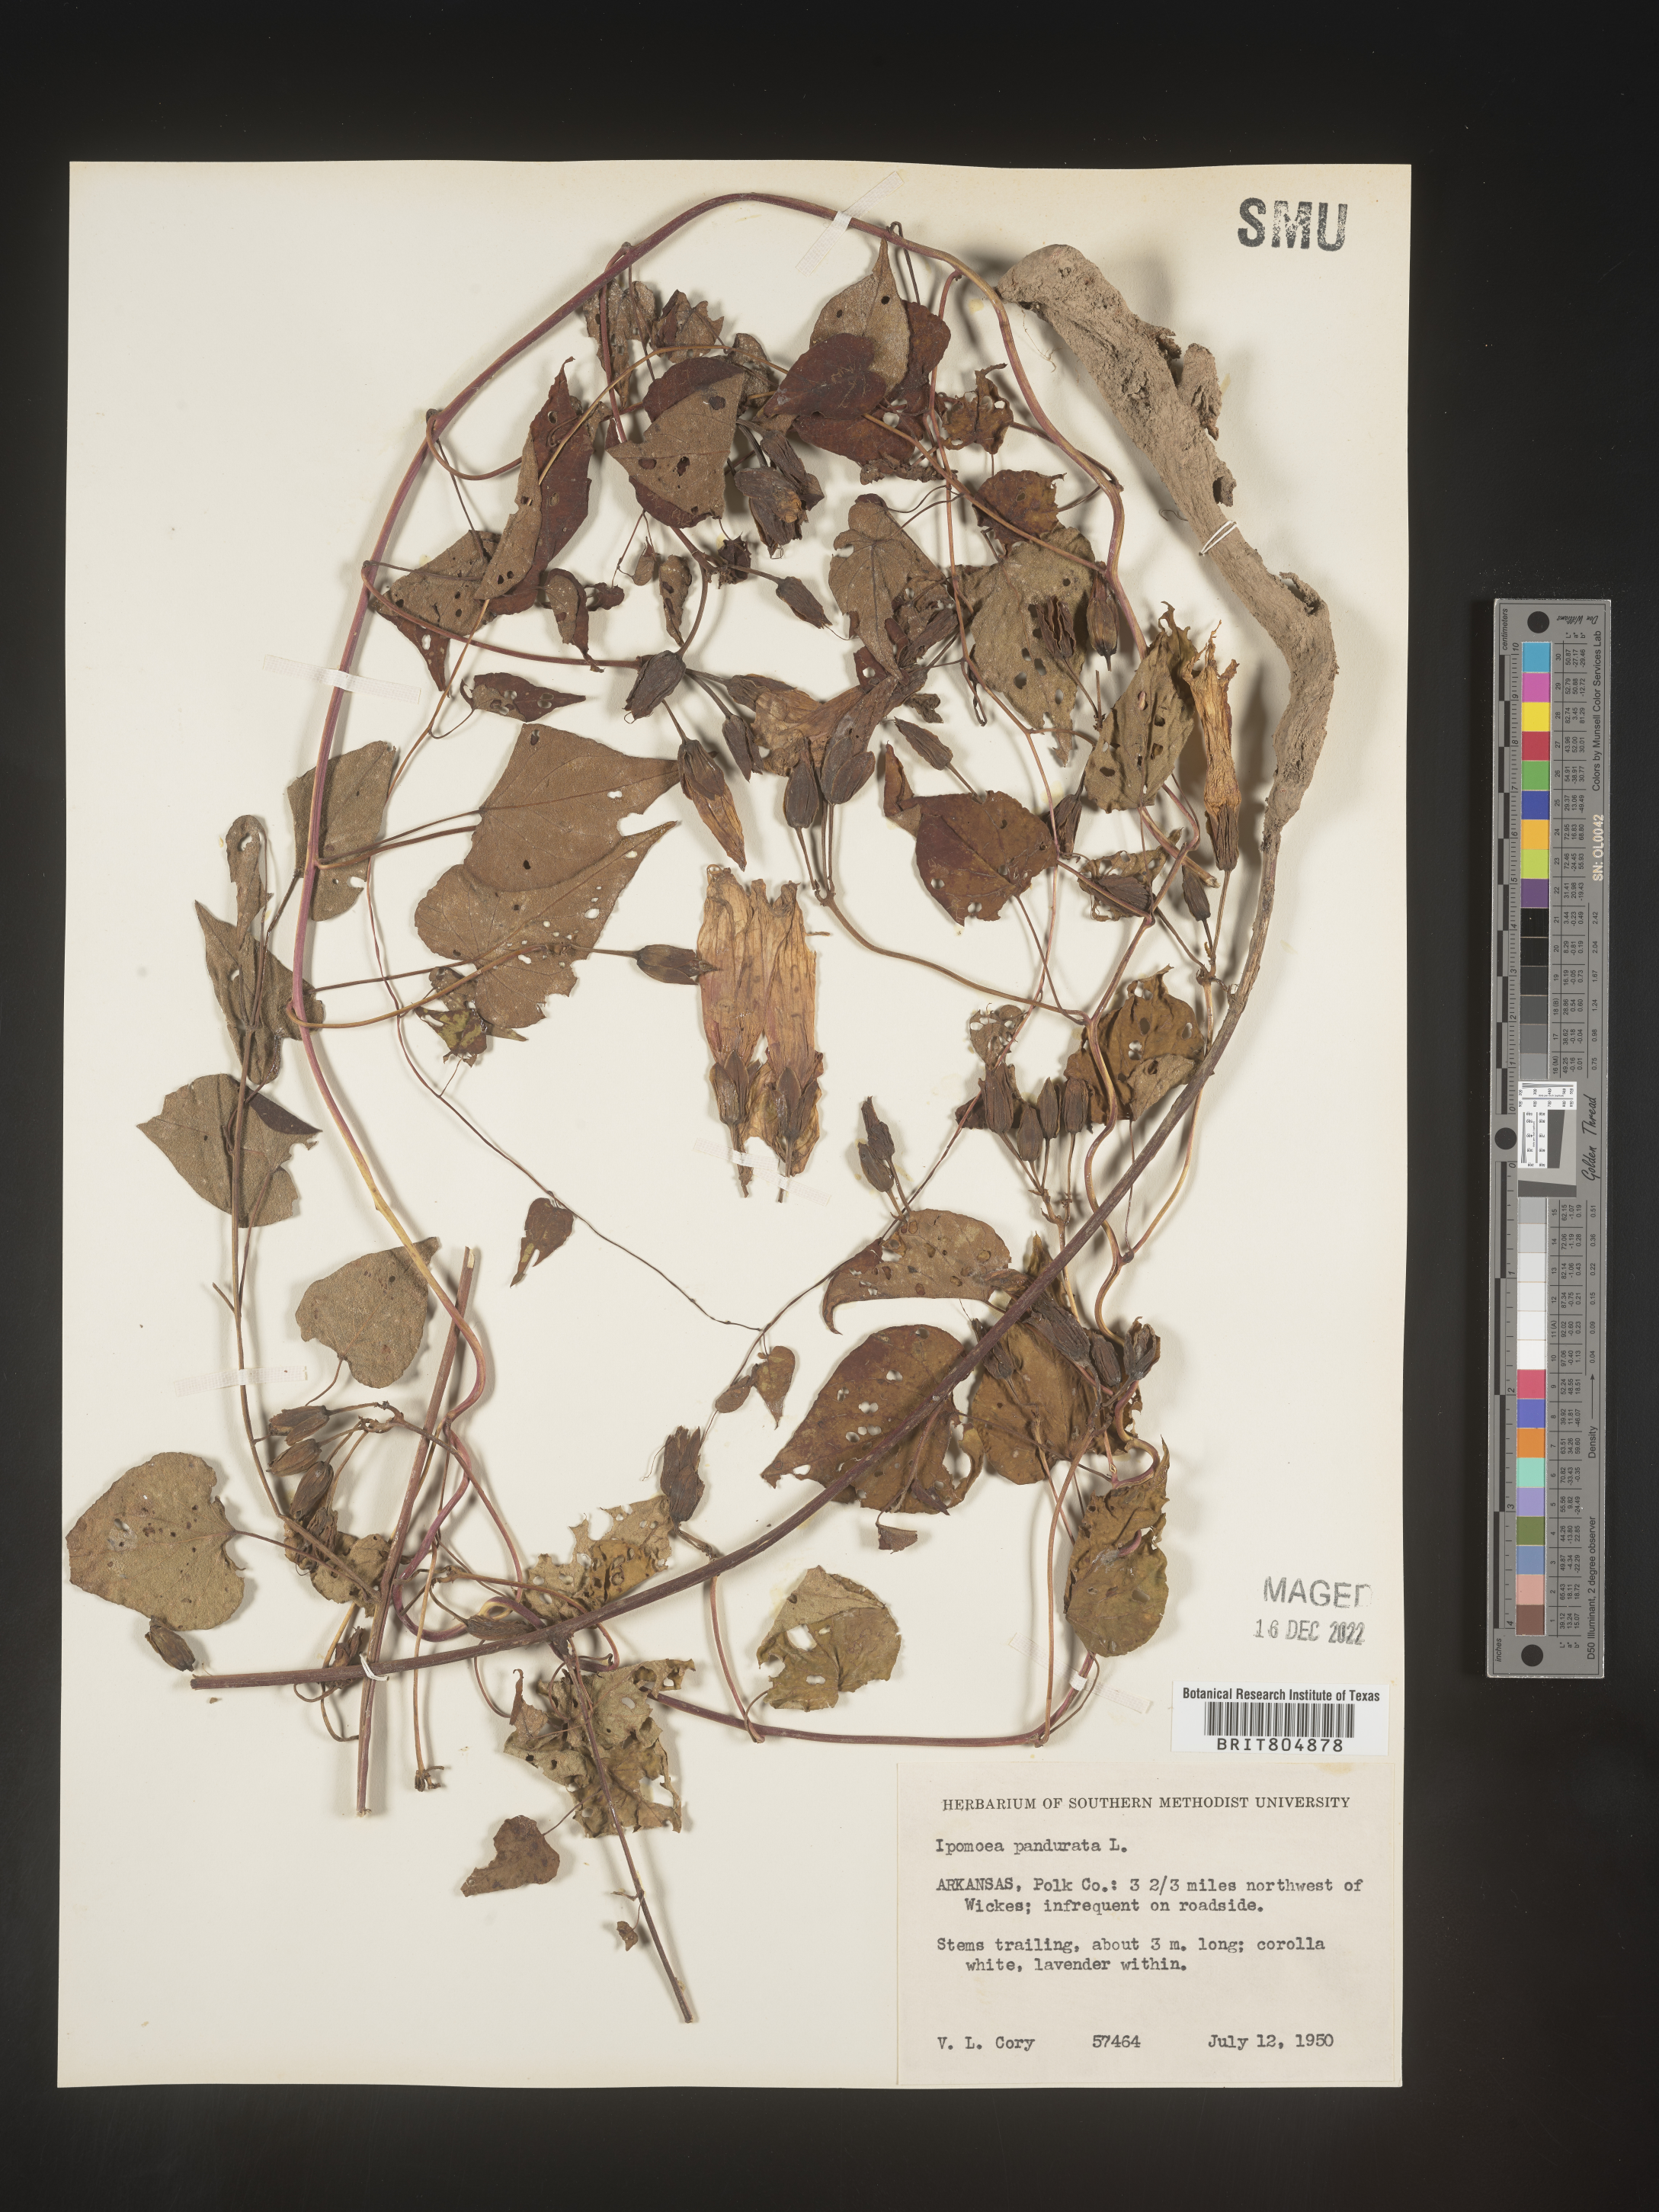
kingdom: Plantae
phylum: Tracheophyta
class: Magnoliopsida
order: Solanales
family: Convolvulaceae
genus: Ipomoea
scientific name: Ipomoea pandurata
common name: Man-of-the-earth
